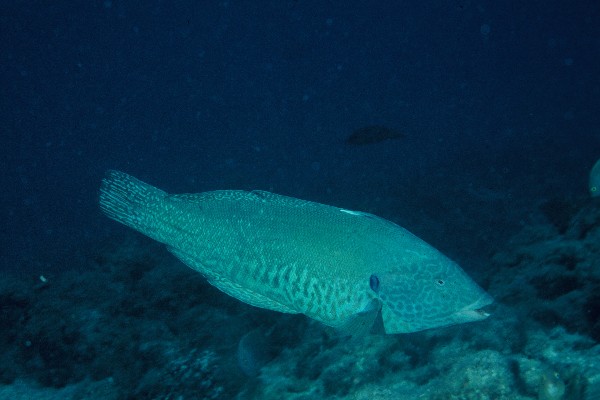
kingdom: Animalia
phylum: Chordata
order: Perciformes
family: Labridae
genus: Coris
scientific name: Coris flavovittata
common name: Yellowstripe coris
